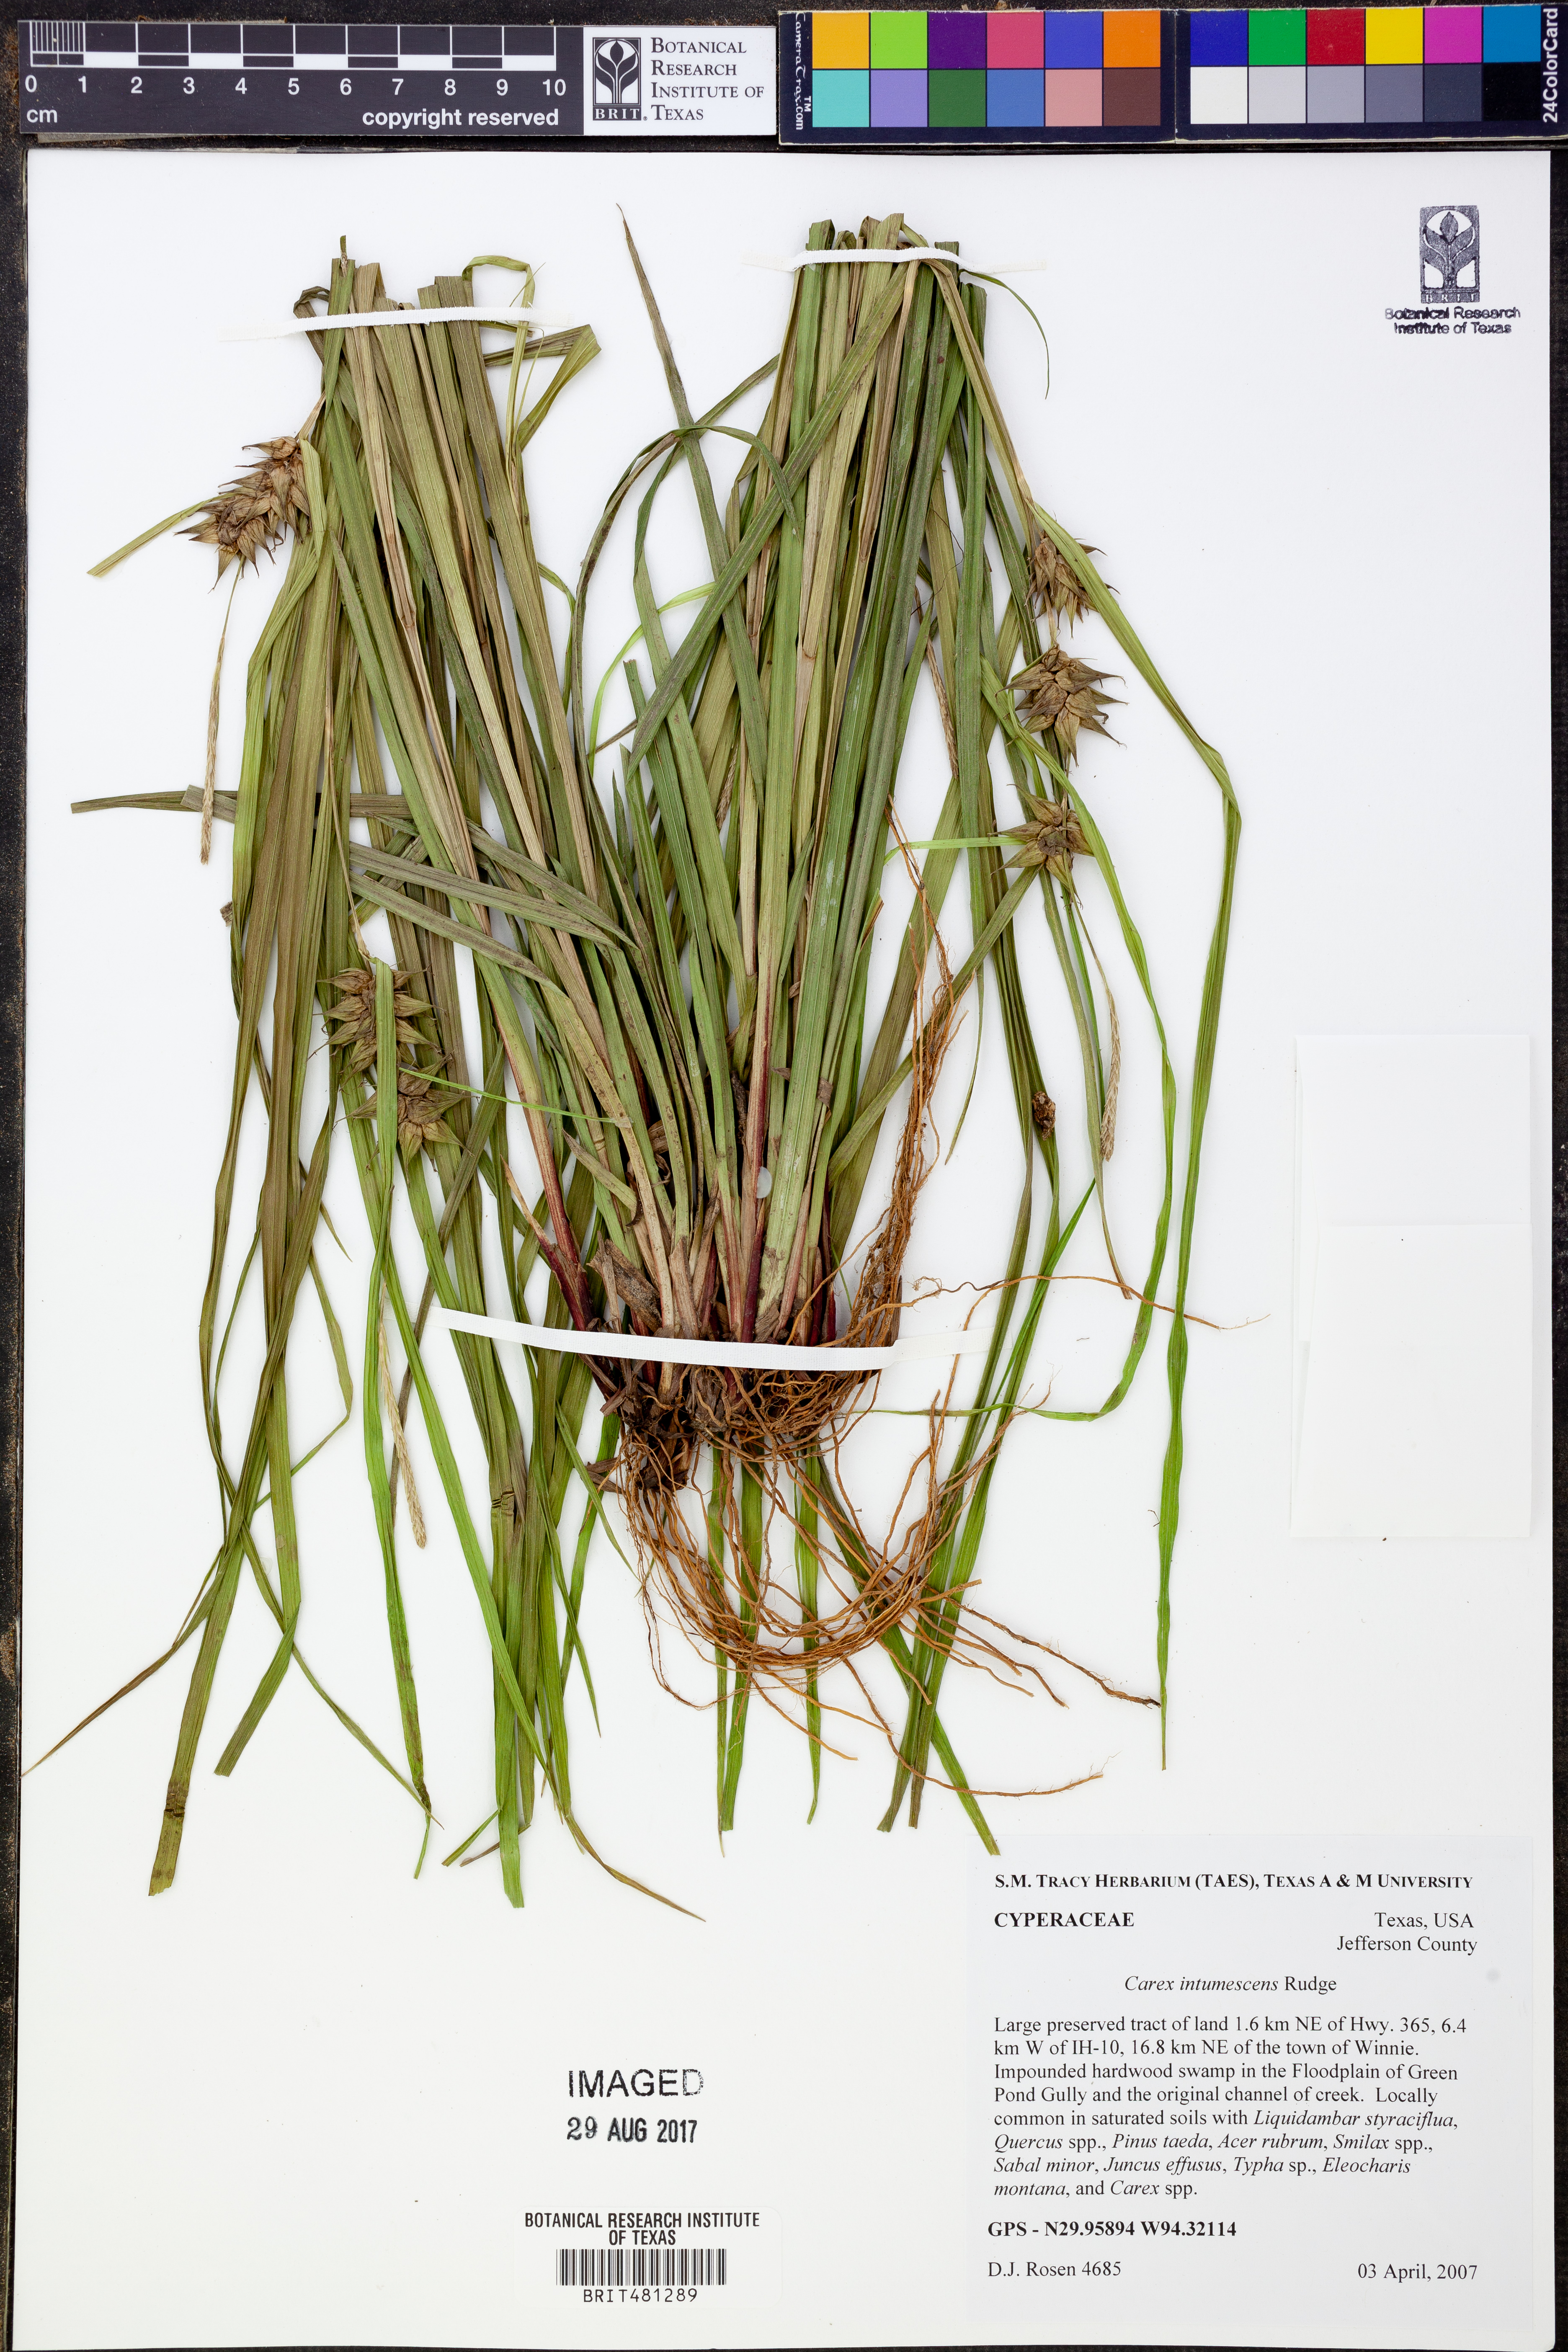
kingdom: Plantae
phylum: Tracheophyta
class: Liliopsida
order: Poales
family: Cyperaceae
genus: Carex
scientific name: Carex intumescens
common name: Greater bladder sedge
